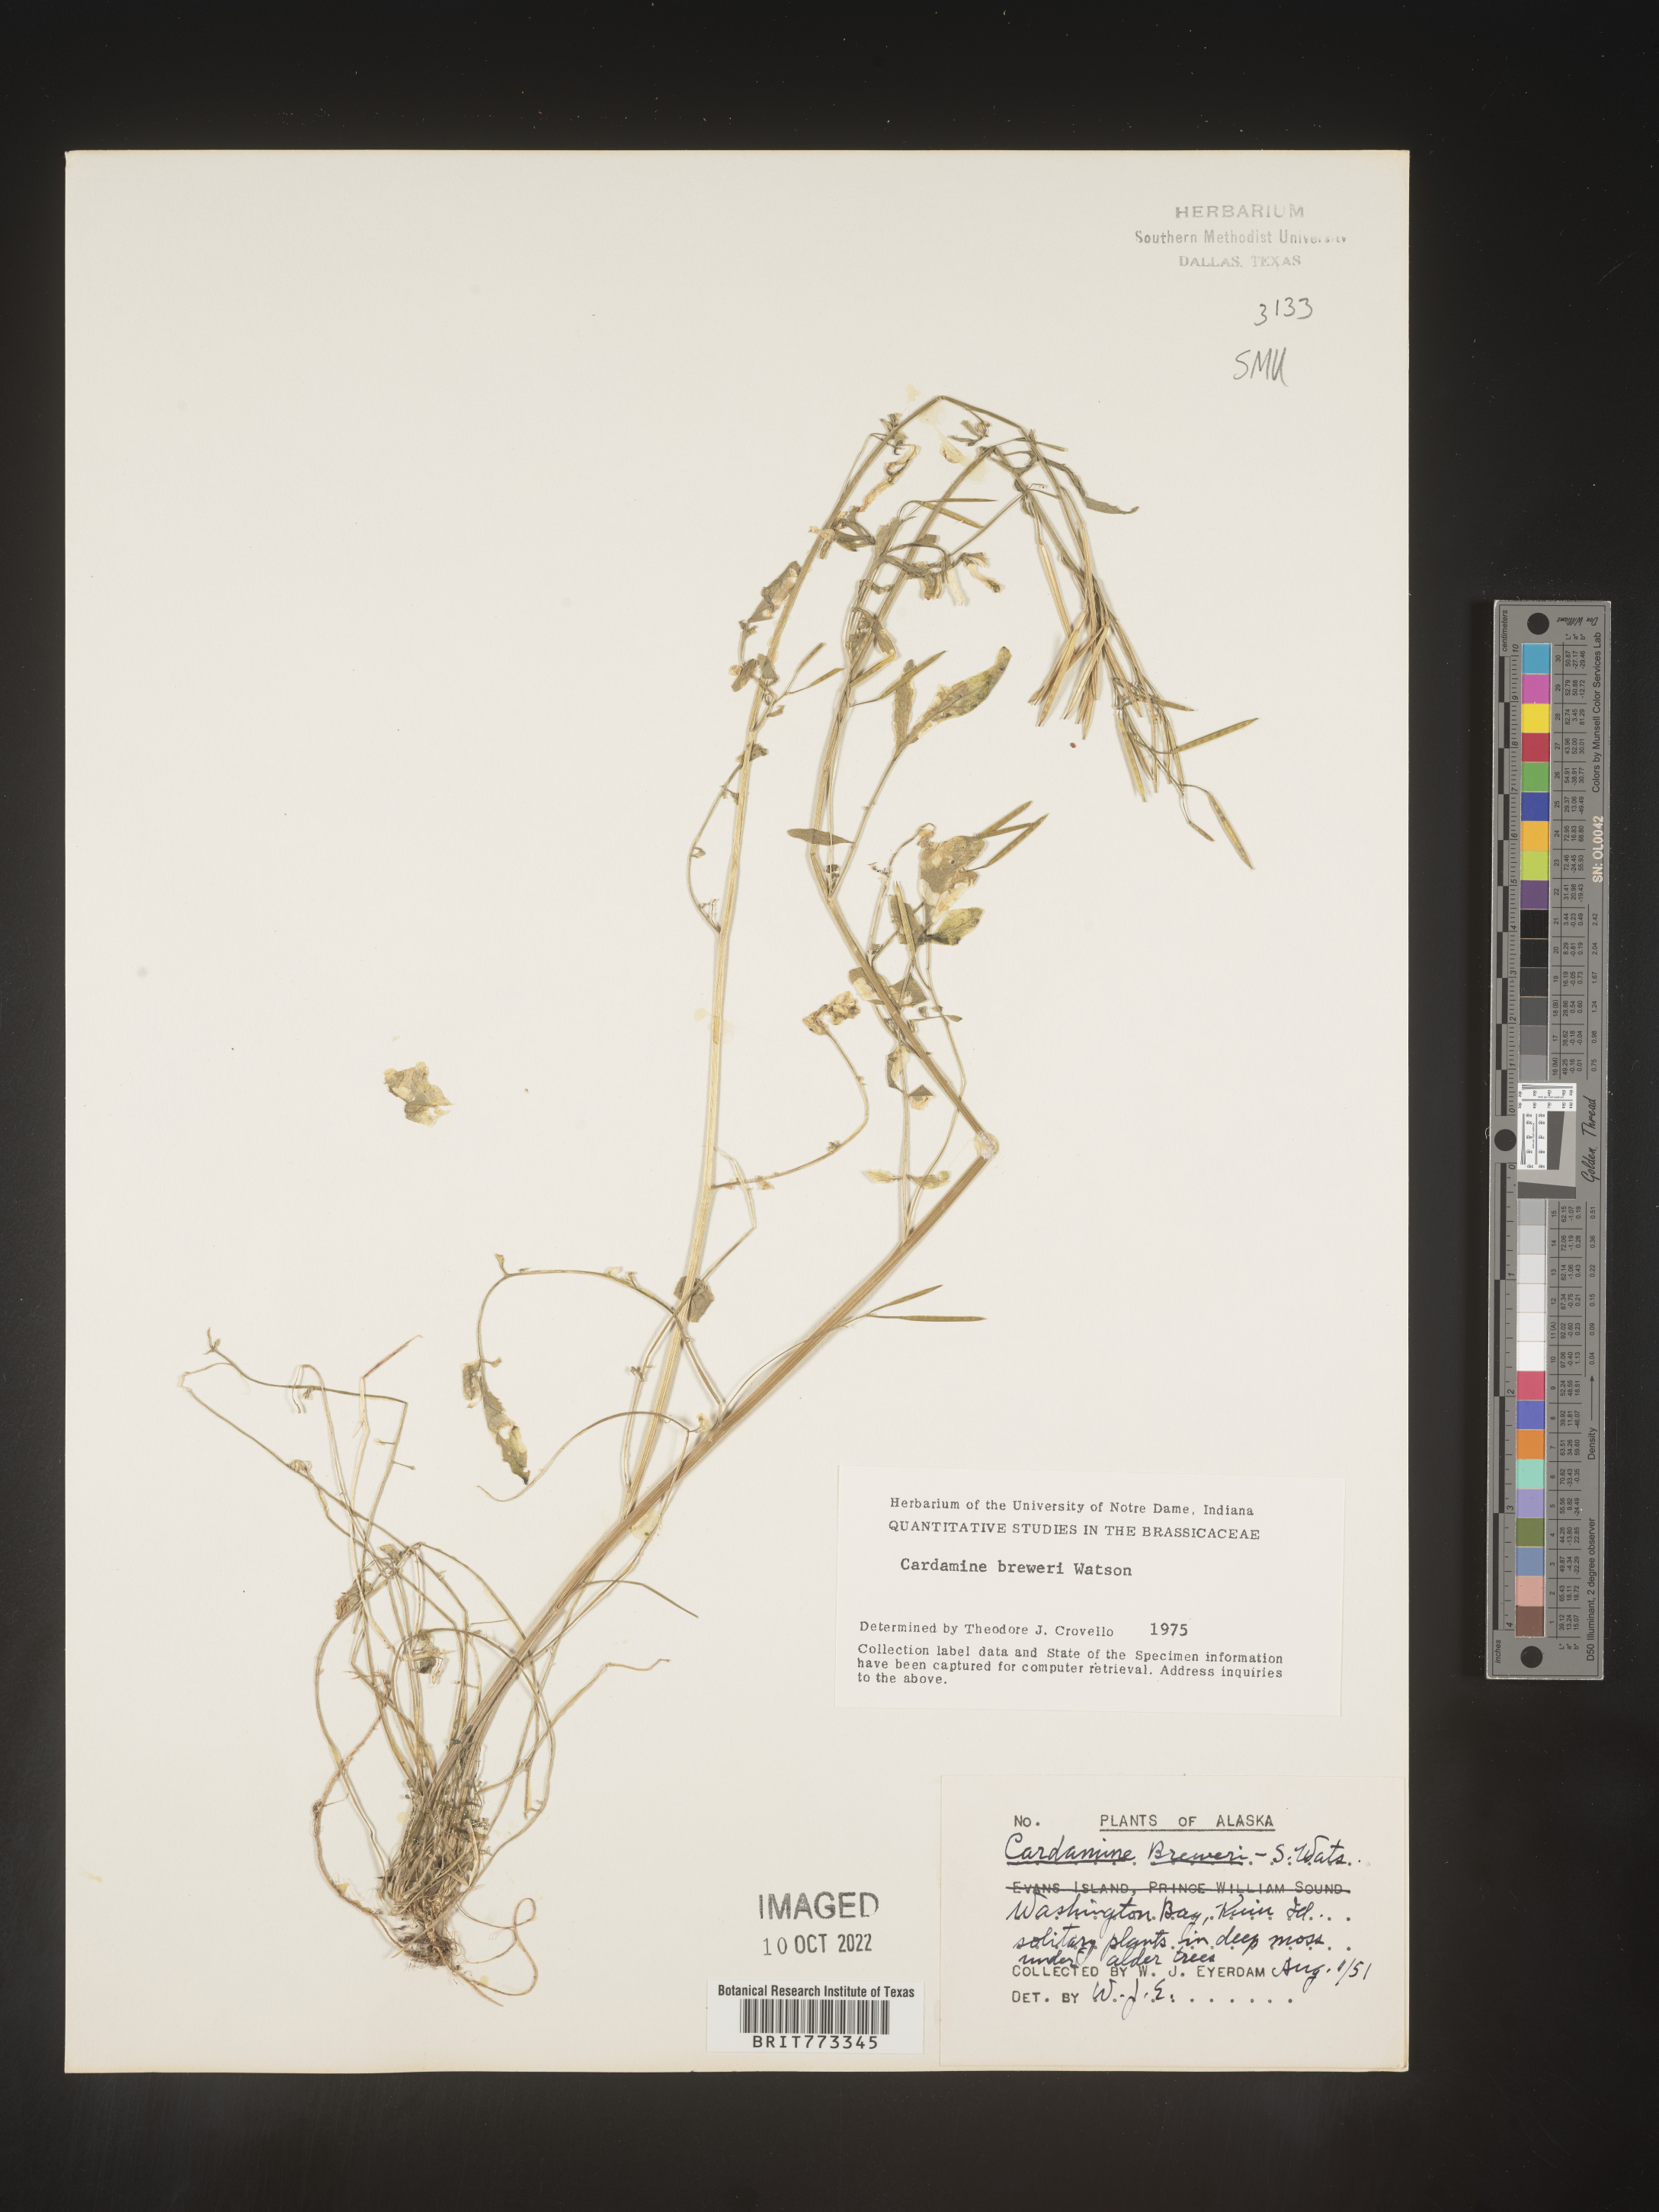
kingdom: Plantae
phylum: Tracheophyta
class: Magnoliopsida
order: Brassicales
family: Brassicaceae
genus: Cardamine
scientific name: Cardamine
